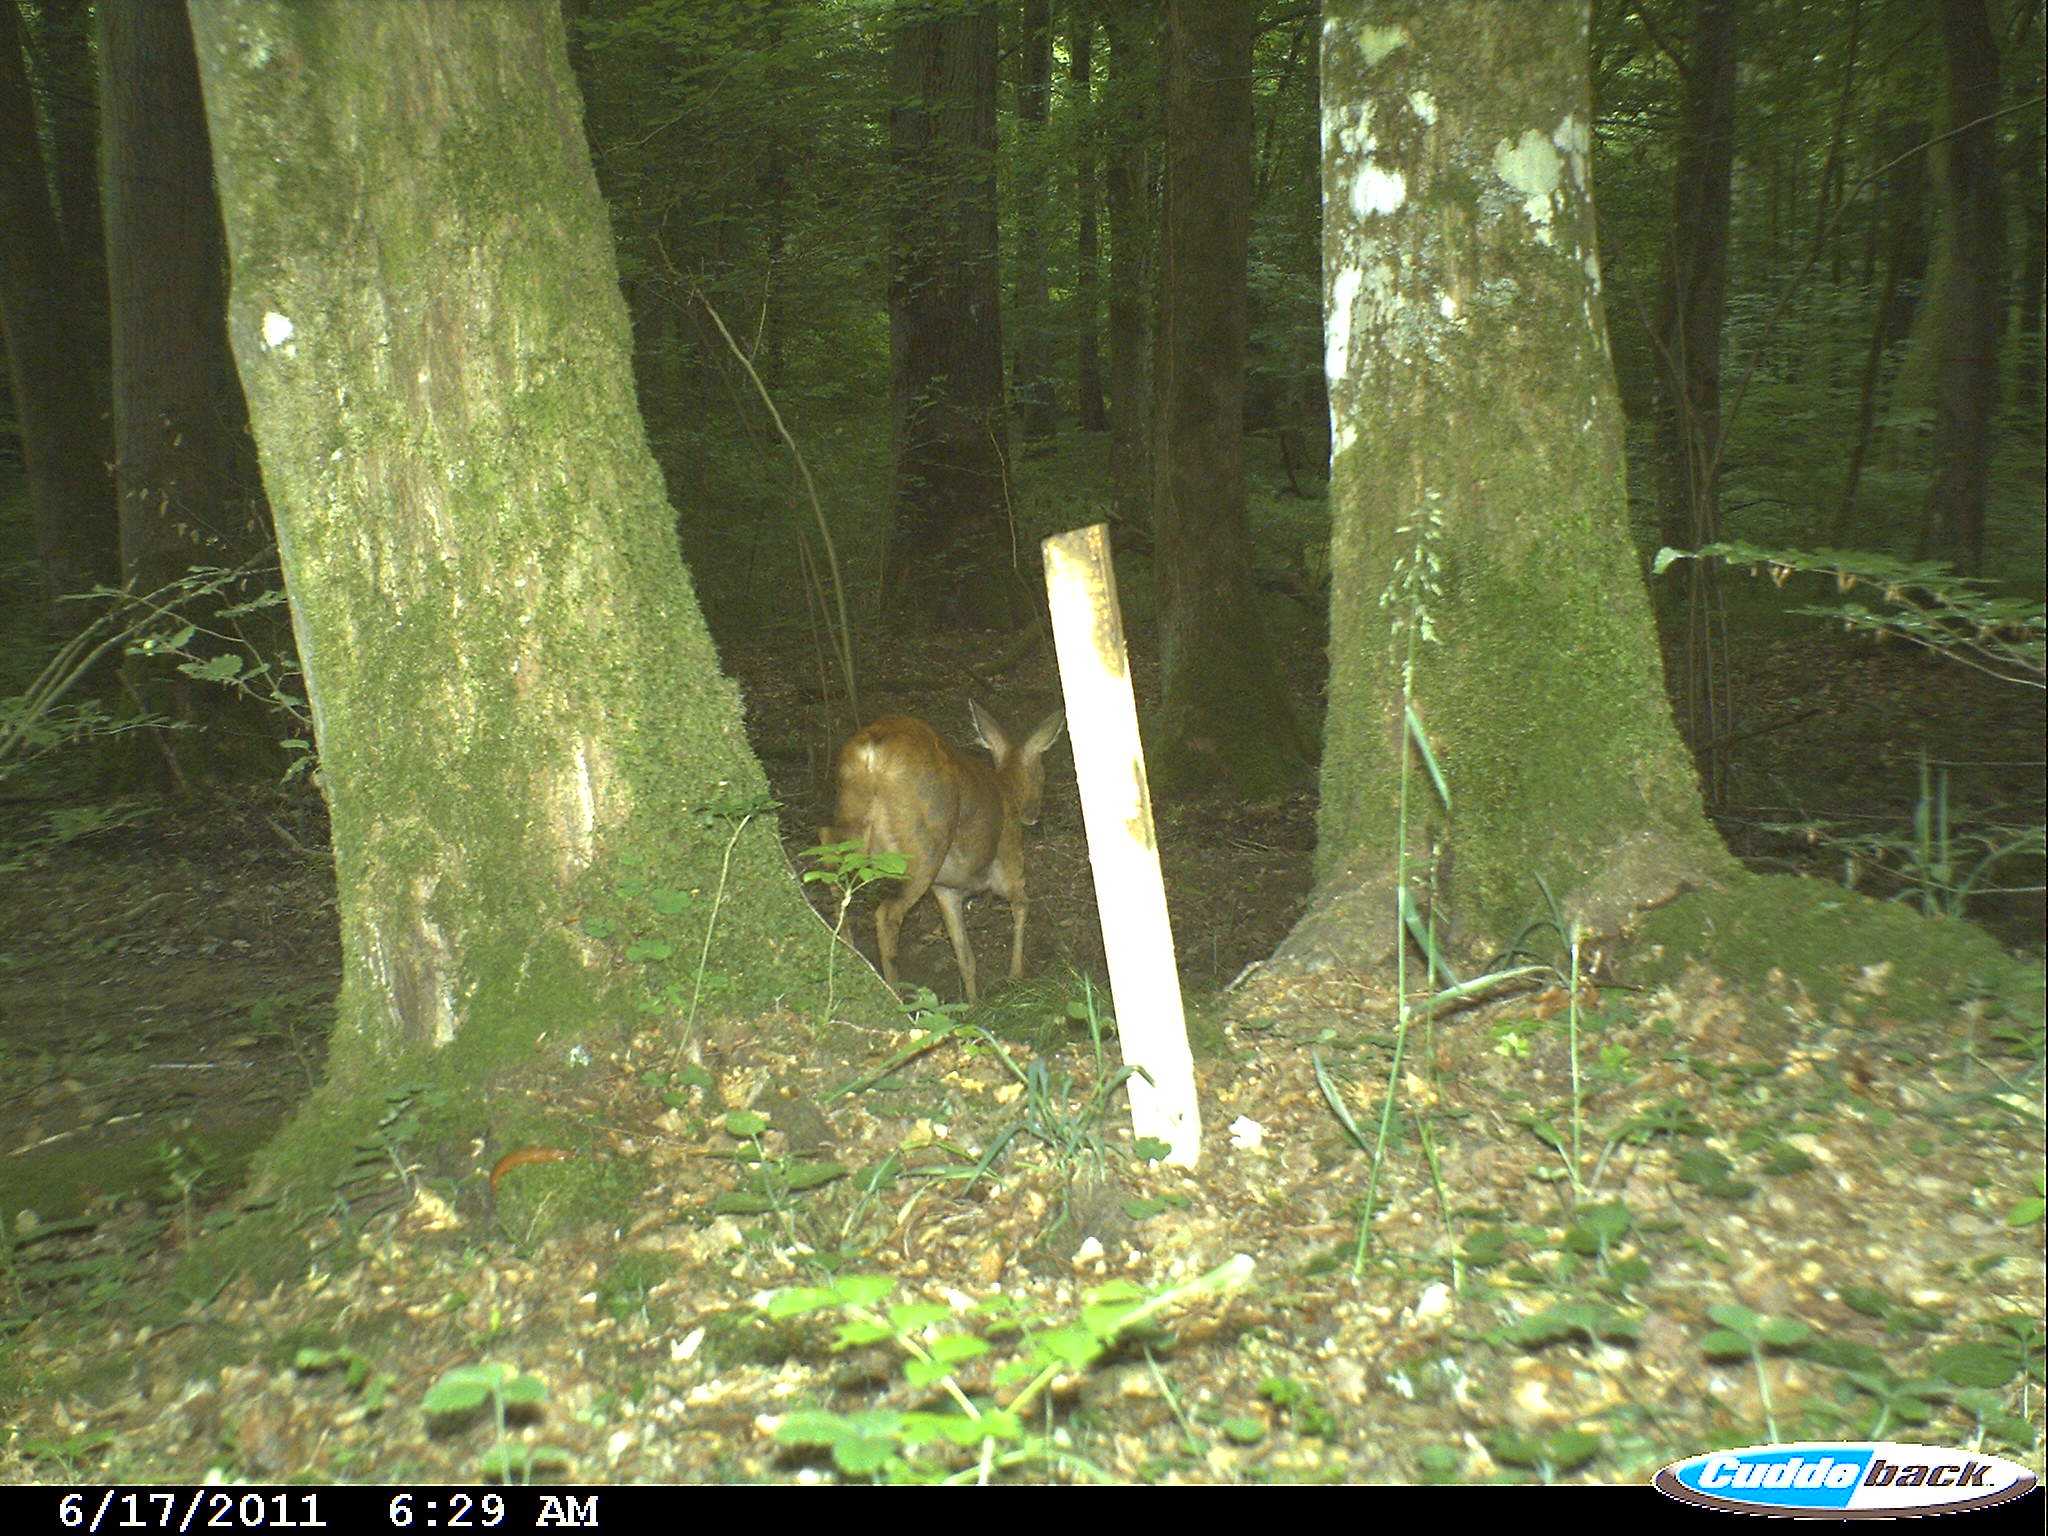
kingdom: Animalia
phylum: Chordata
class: Mammalia
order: Artiodactyla
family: Cervidae
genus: Capreolus
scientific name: Capreolus capreolus
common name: Western roe deer
